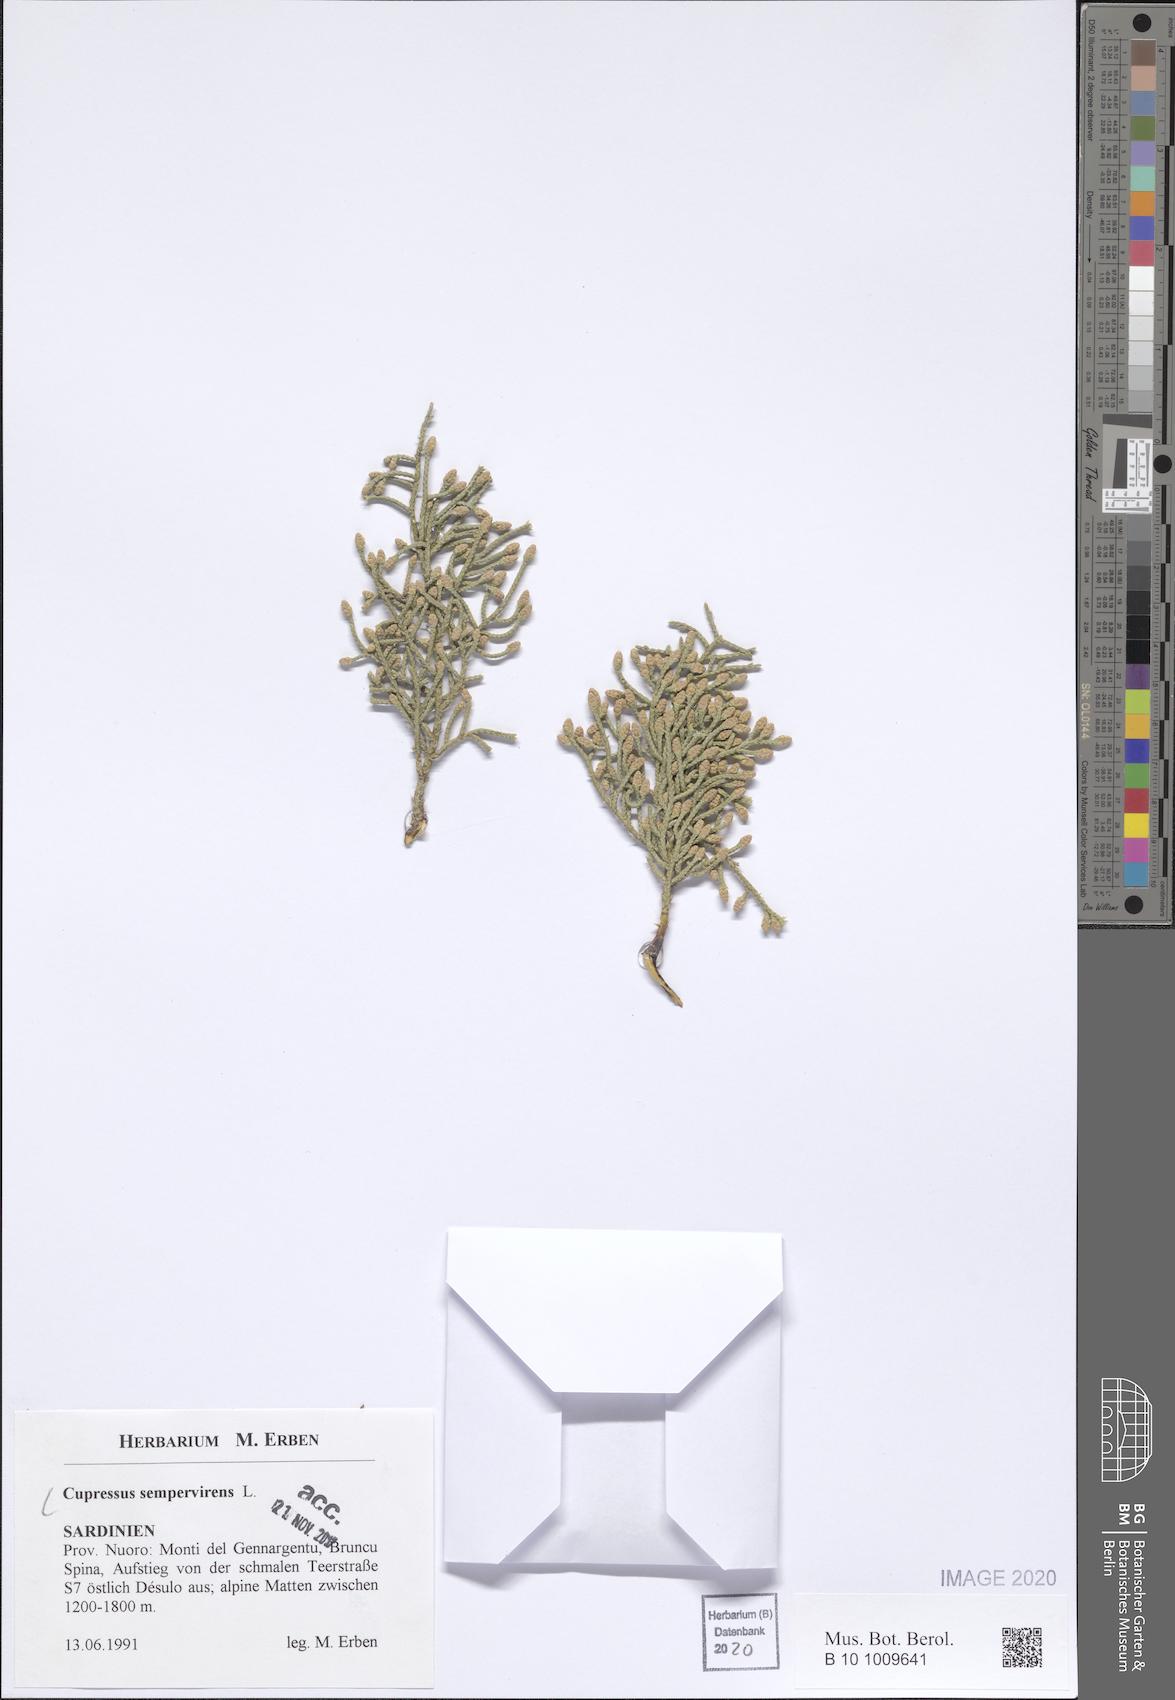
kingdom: Plantae
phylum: Tracheophyta
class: Pinopsida
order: Pinales
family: Cupressaceae
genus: Cupressus
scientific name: Cupressus sempervirens
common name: Italian cypress
